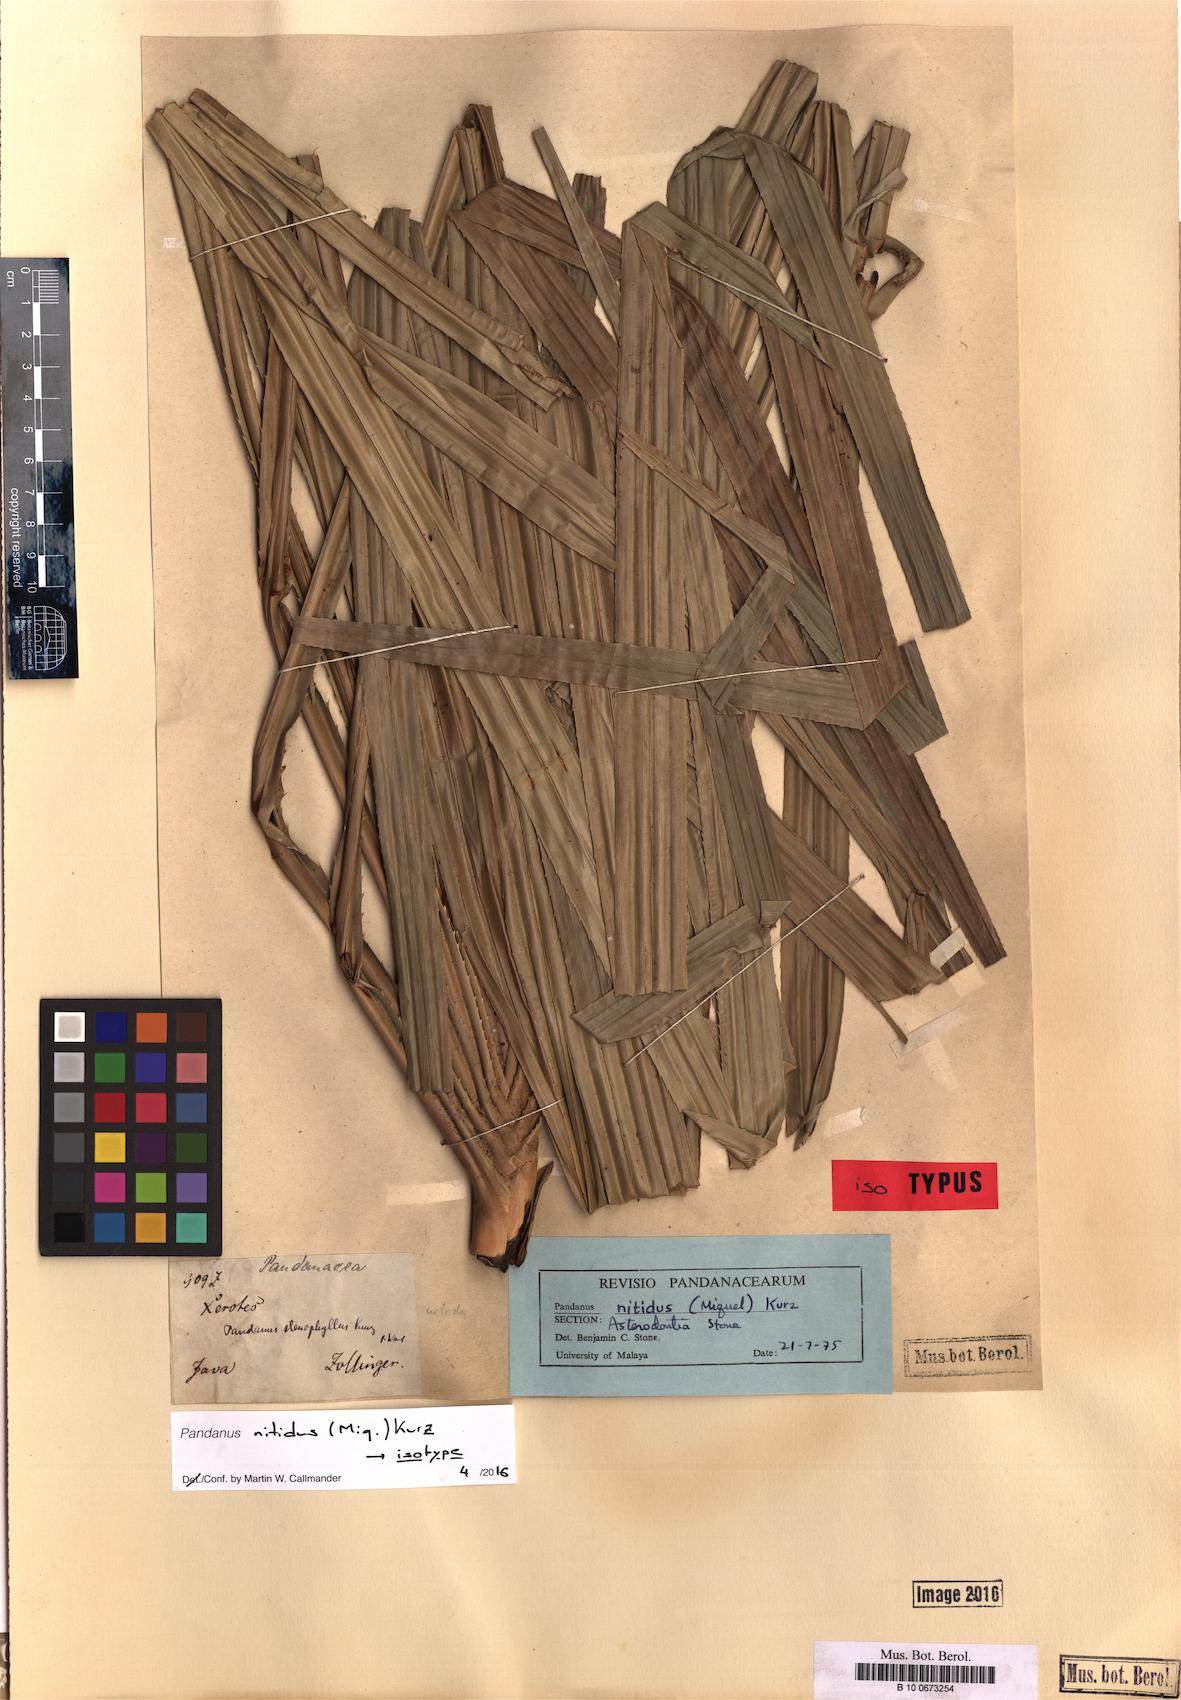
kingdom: Plantae
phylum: Tracheophyta
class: Liliopsida
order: Pandanales
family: Pandanaceae
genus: Pandanus
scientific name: Pandanus nitidus
